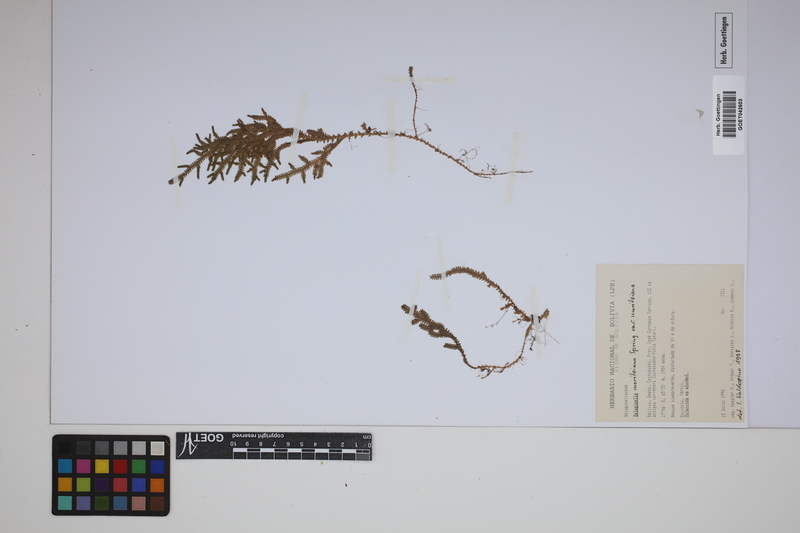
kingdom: Plantae
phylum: Tracheophyta
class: Lycopodiopsida
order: Selaginellales
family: Selaginellaceae
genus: Selaginella
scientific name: Selaginella moritziana
